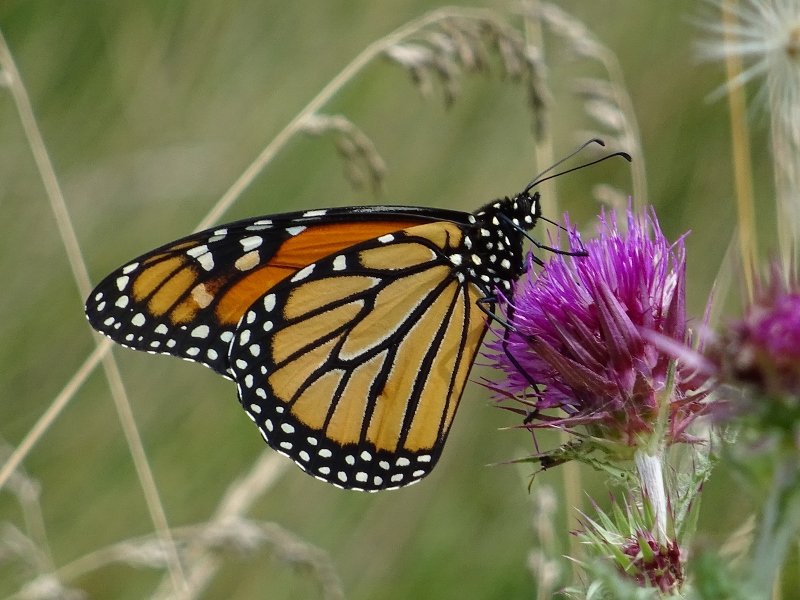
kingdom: Animalia
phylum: Arthropoda
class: Insecta
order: Lepidoptera
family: Nymphalidae
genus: Danaus
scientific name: Danaus plexippus
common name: Monarch
